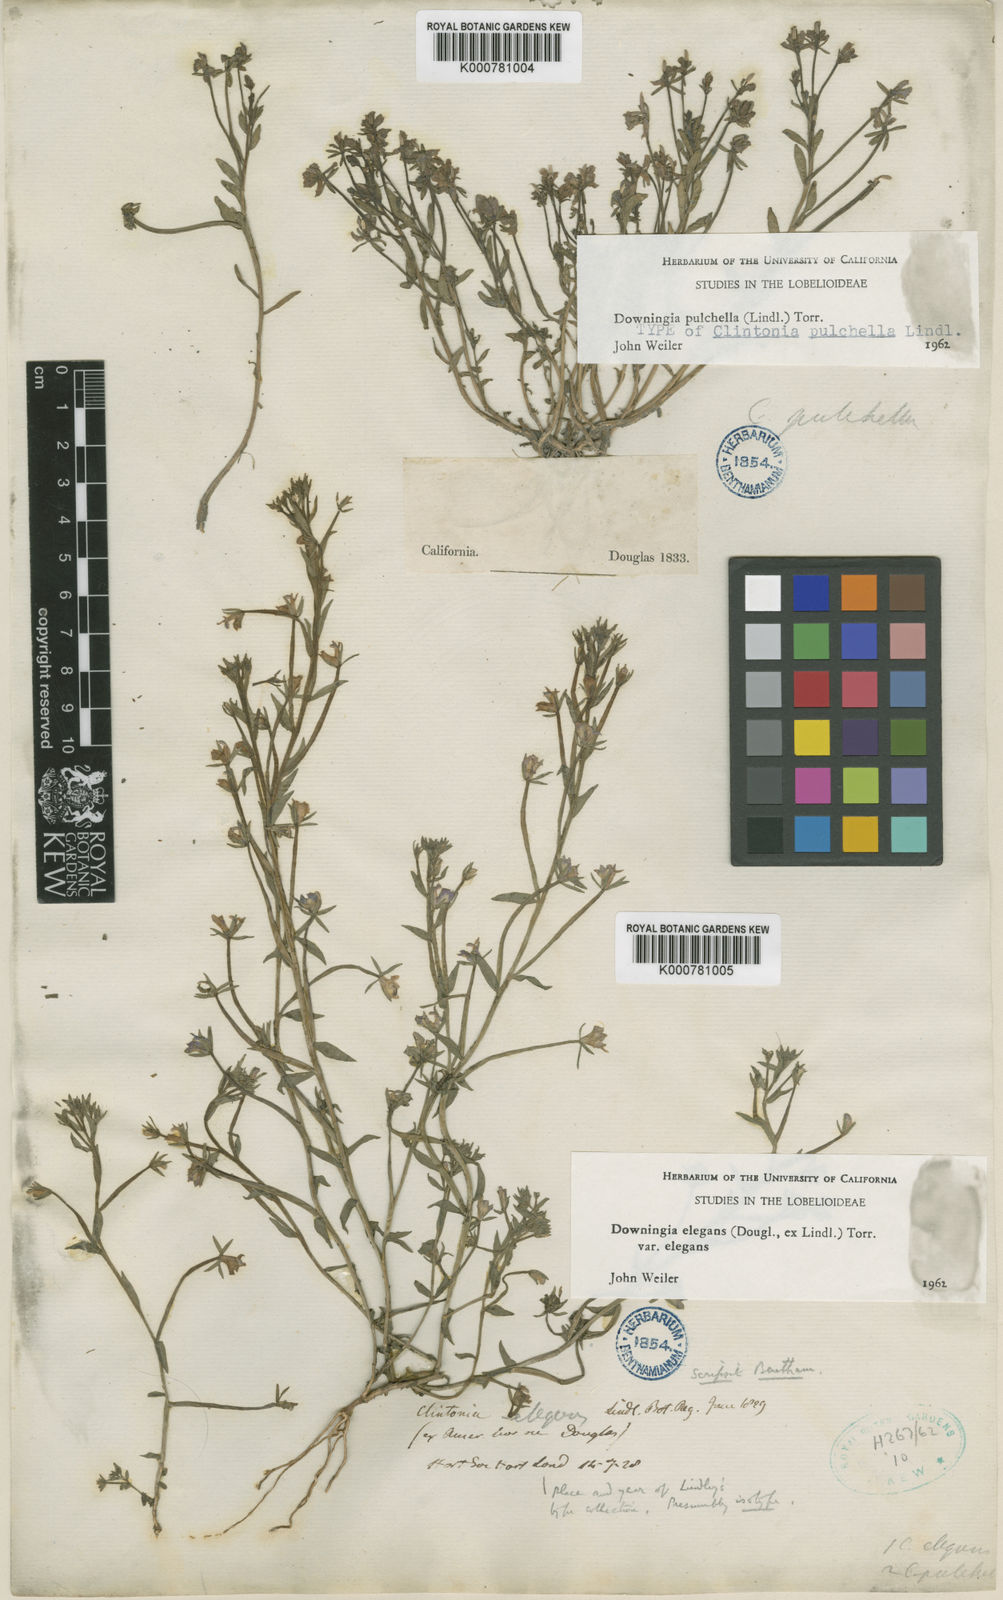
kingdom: Plantae
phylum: Tracheophyta
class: Magnoliopsida
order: Asterales
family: Campanulaceae
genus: Downingia
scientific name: Downingia elegans
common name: Californian lobelia
